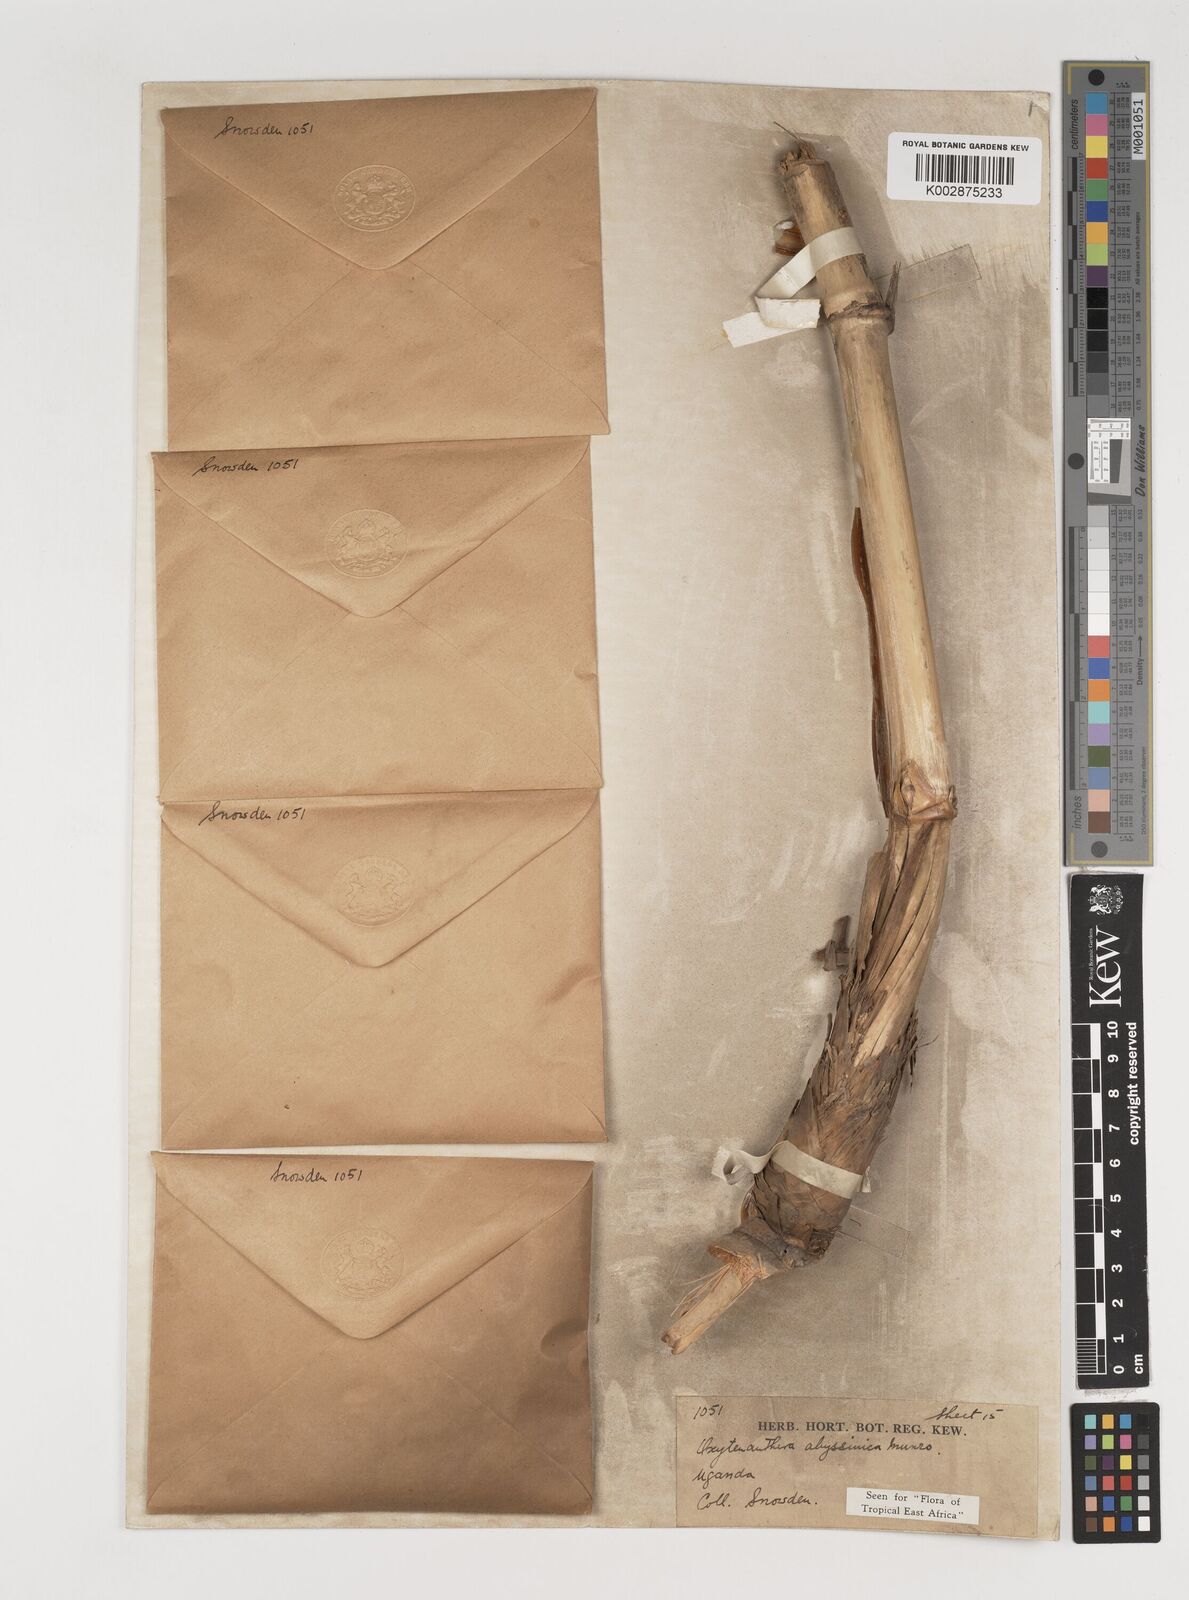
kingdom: Plantae
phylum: Tracheophyta
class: Liliopsida
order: Poales
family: Poaceae
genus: Oxytenanthera
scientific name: Oxytenanthera abyssinica
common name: Wine bamboo
